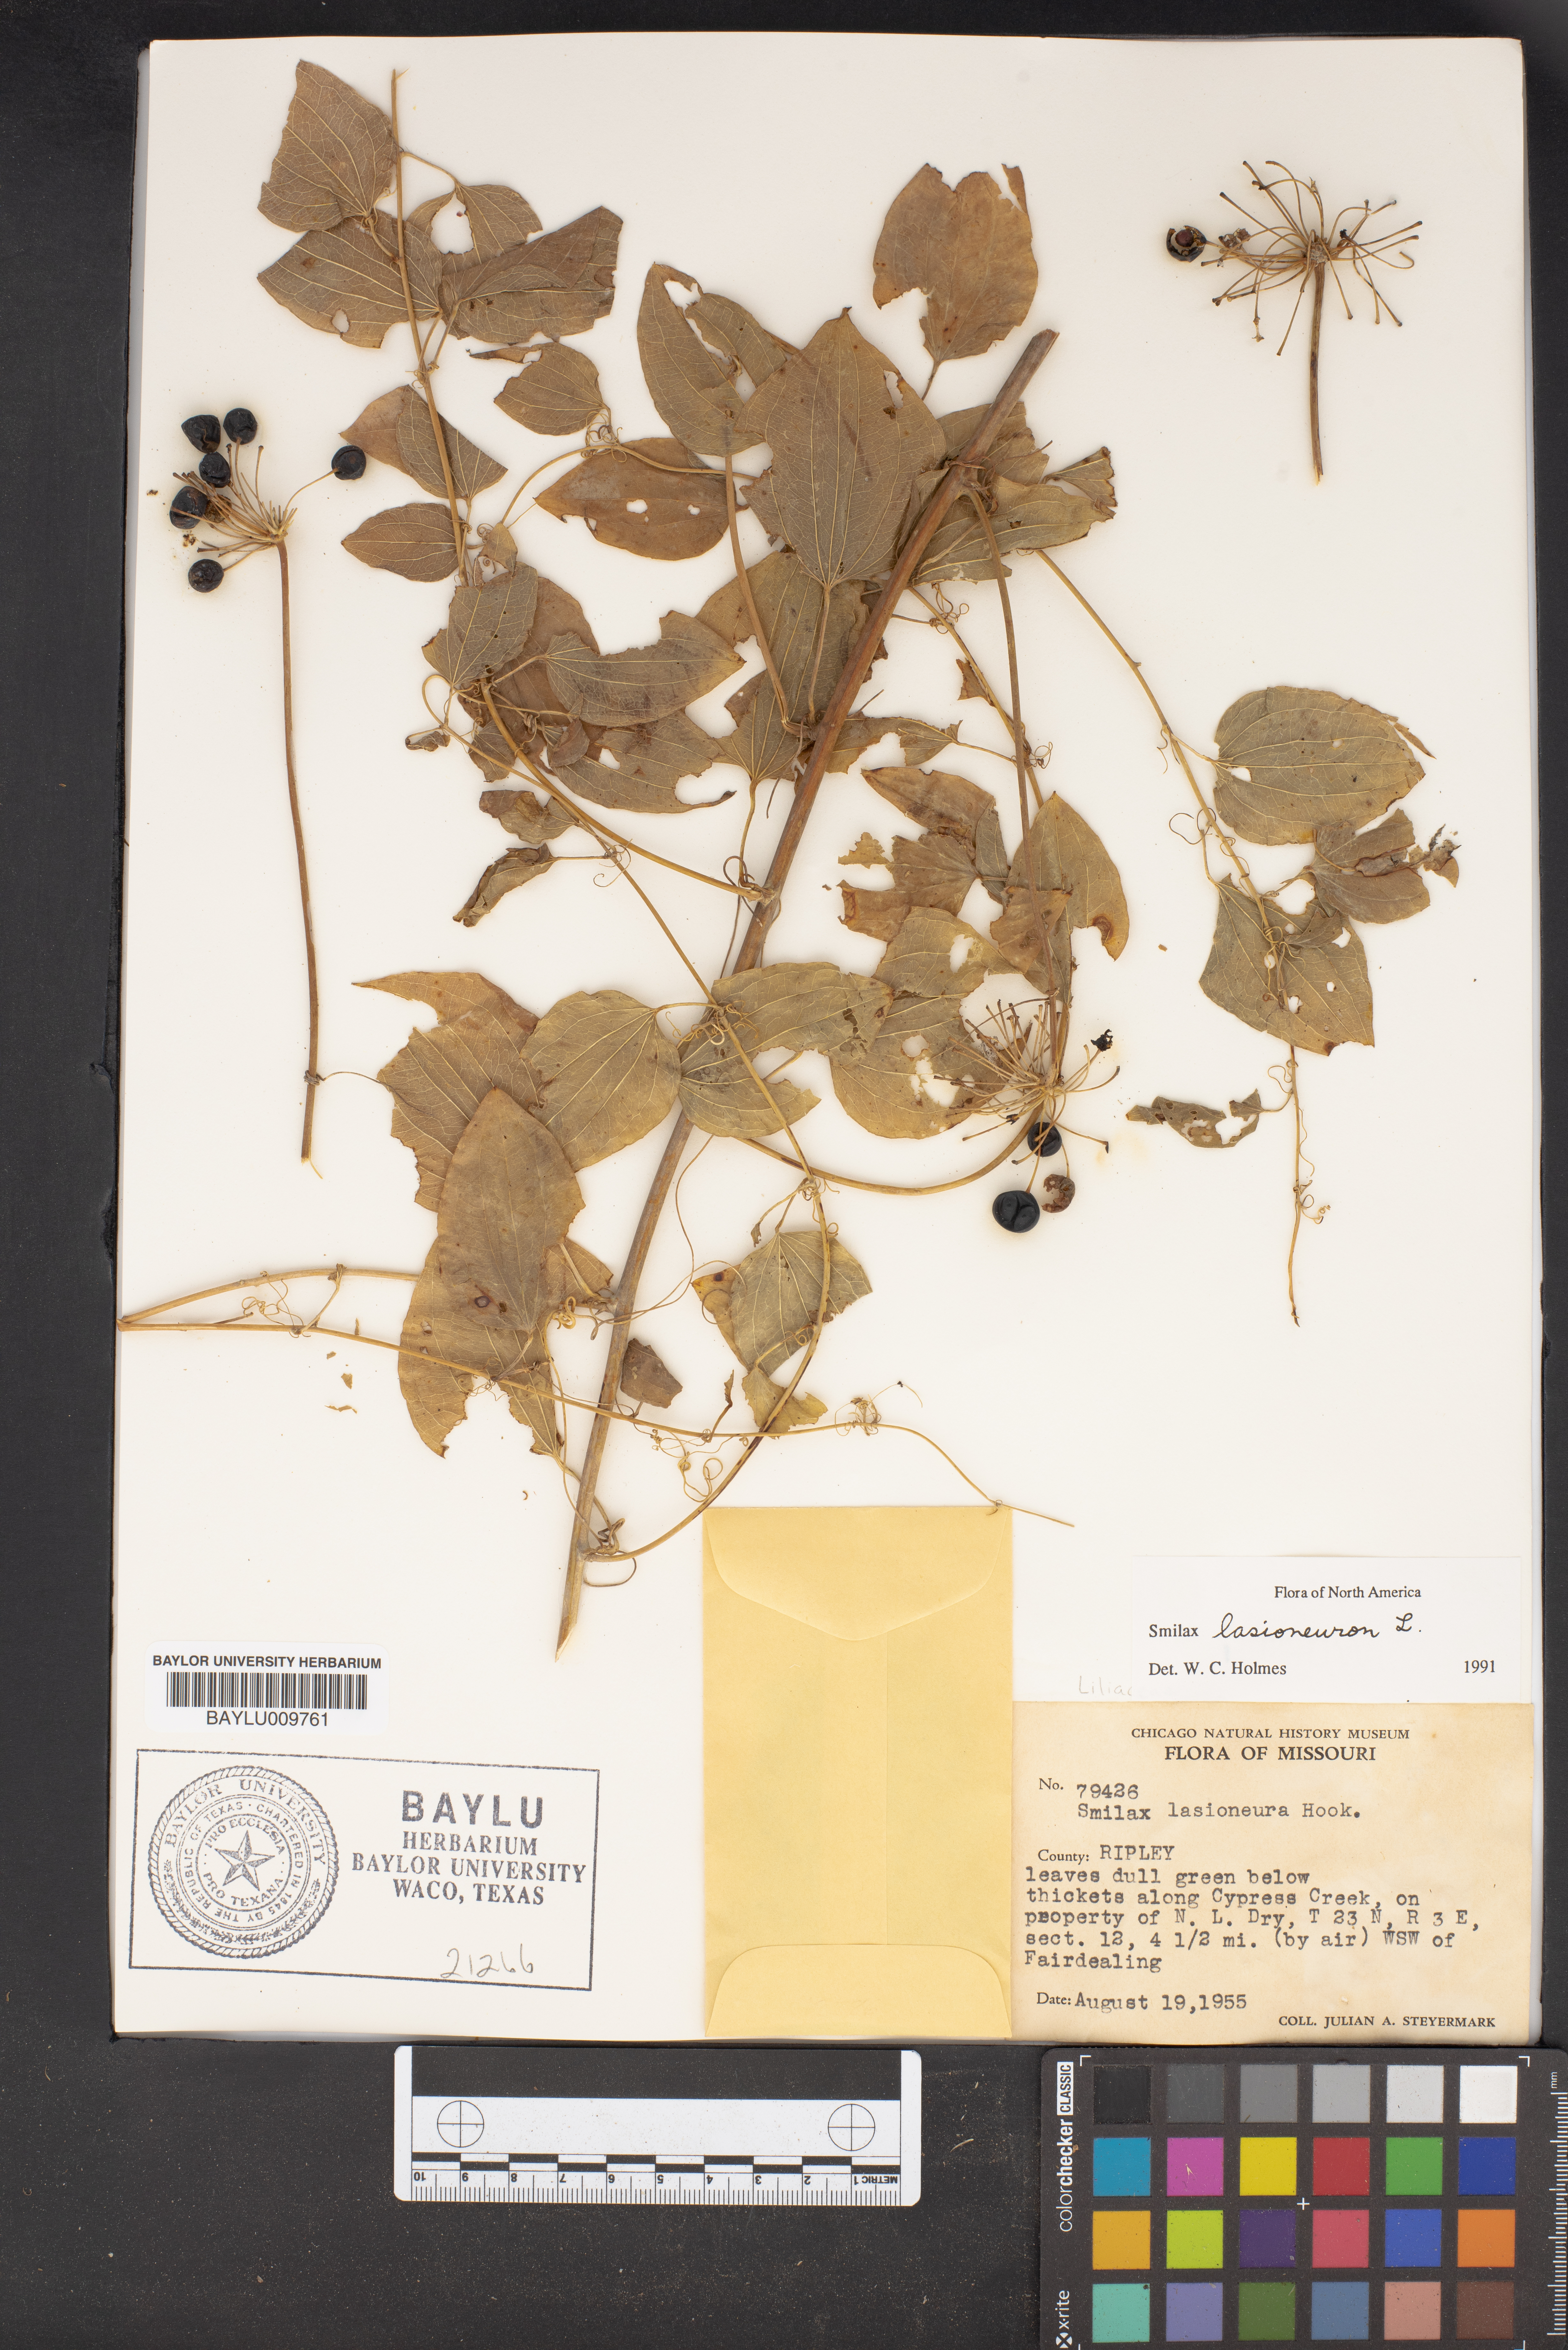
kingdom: Plantae
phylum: Tracheophyta
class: Liliopsida
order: Liliales
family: Smilacaceae
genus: Smilax
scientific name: Smilax lasioneura
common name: Blue ridge carrionflower
